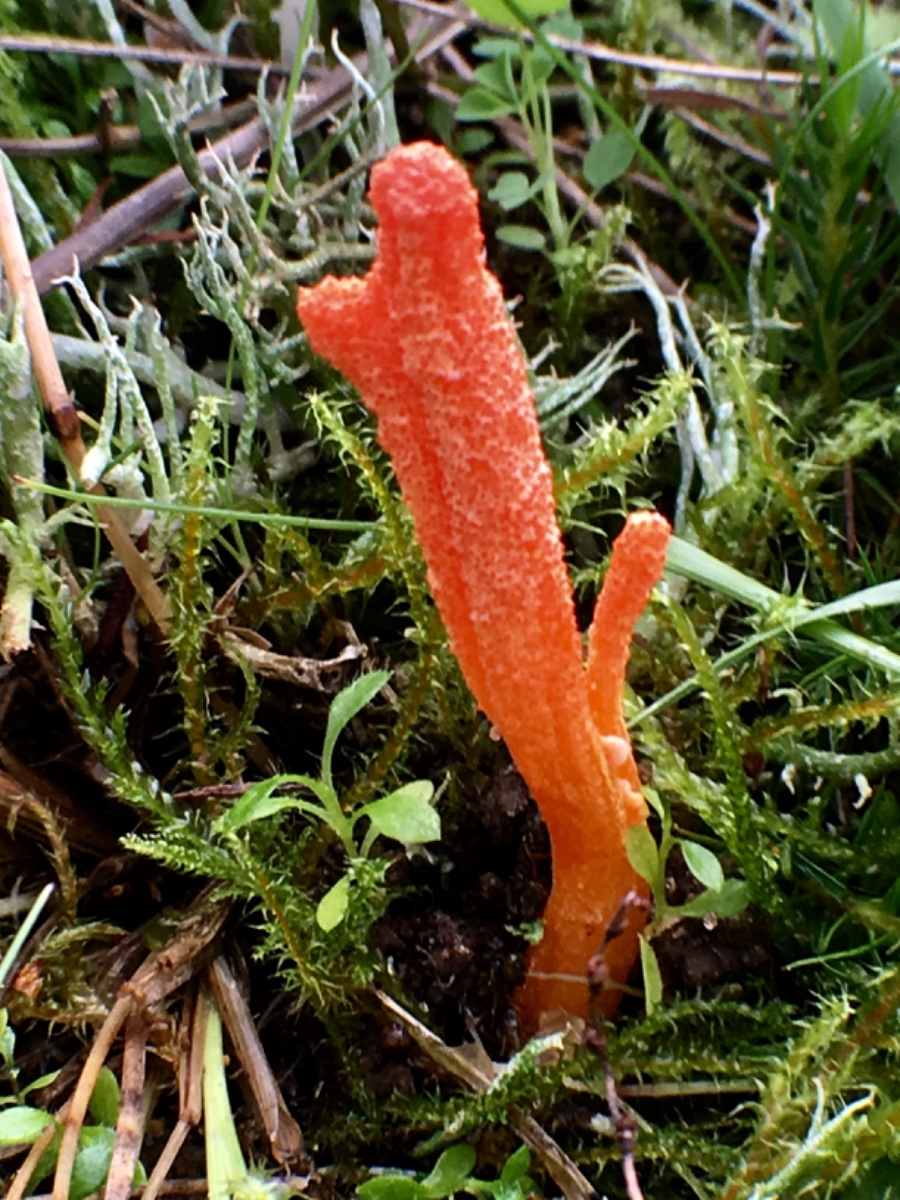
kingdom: Fungi
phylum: Ascomycota
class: Sordariomycetes
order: Hypocreales
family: Cordycipitaceae
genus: Cordyceps
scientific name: Cordyceps militaris
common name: puppe-snyltekølle
